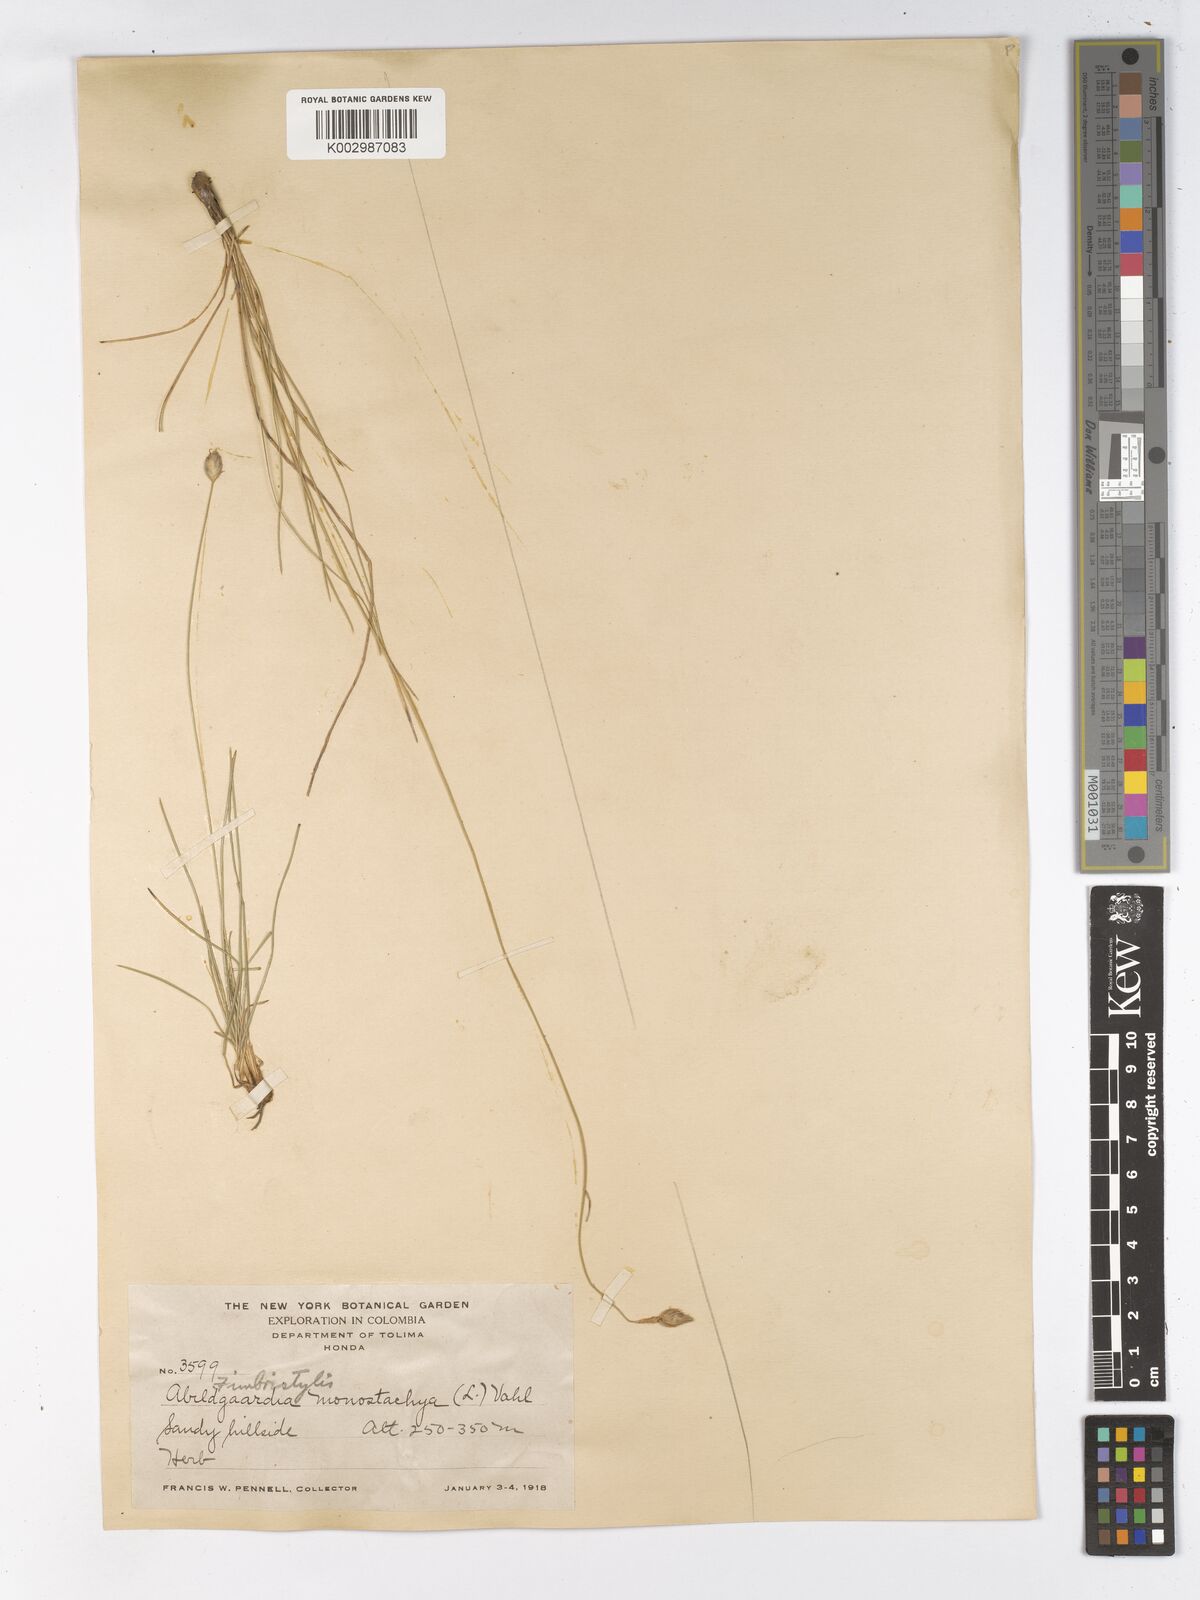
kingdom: Plantae
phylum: Tracheophyta
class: Liliopsida
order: Poales
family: Cyperaceae
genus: Abildgaardia
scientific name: Abildgaardia ovata
